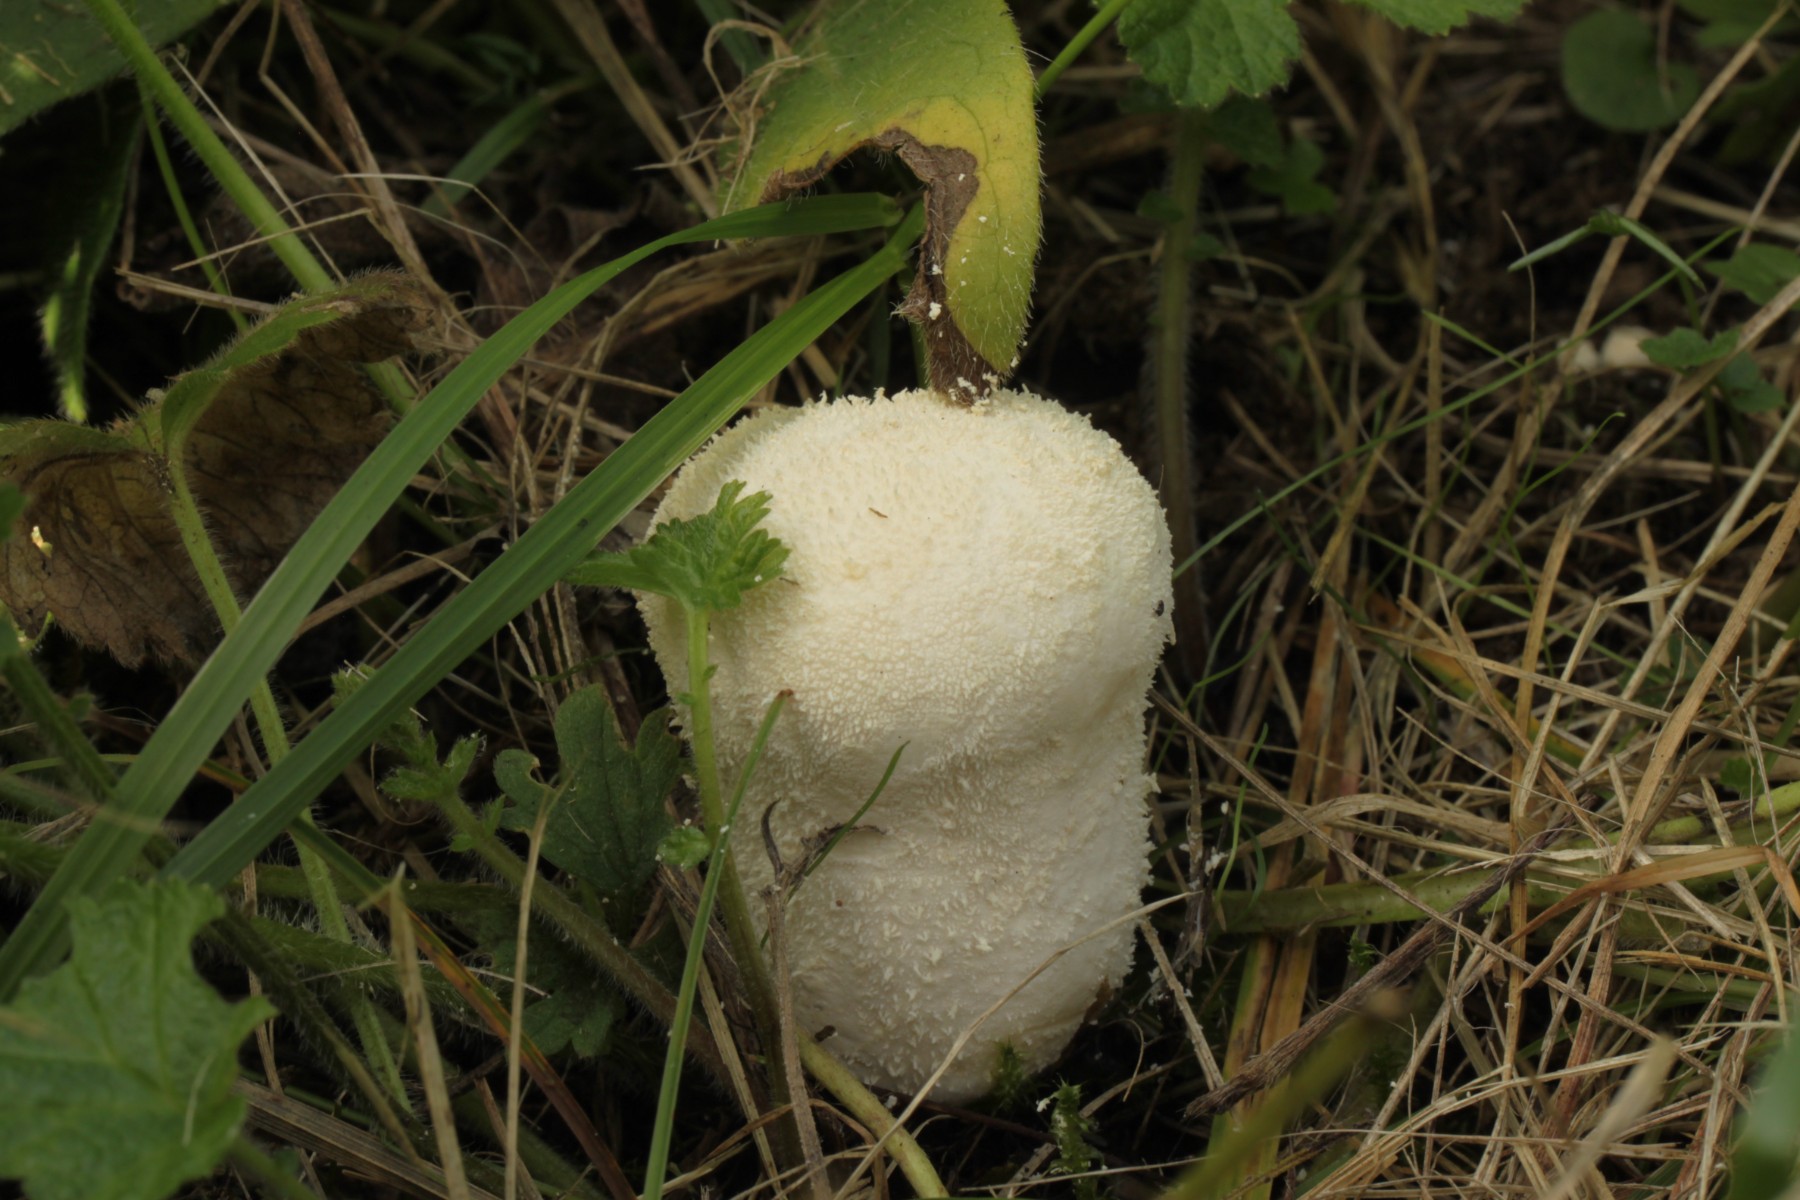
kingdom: Fungi
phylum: Basidiomycota
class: Agaricomycetes
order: Agaricales
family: Lycoperdaceae
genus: Lycoperdon
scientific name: Lycoperdon pratense
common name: flad støvbold
